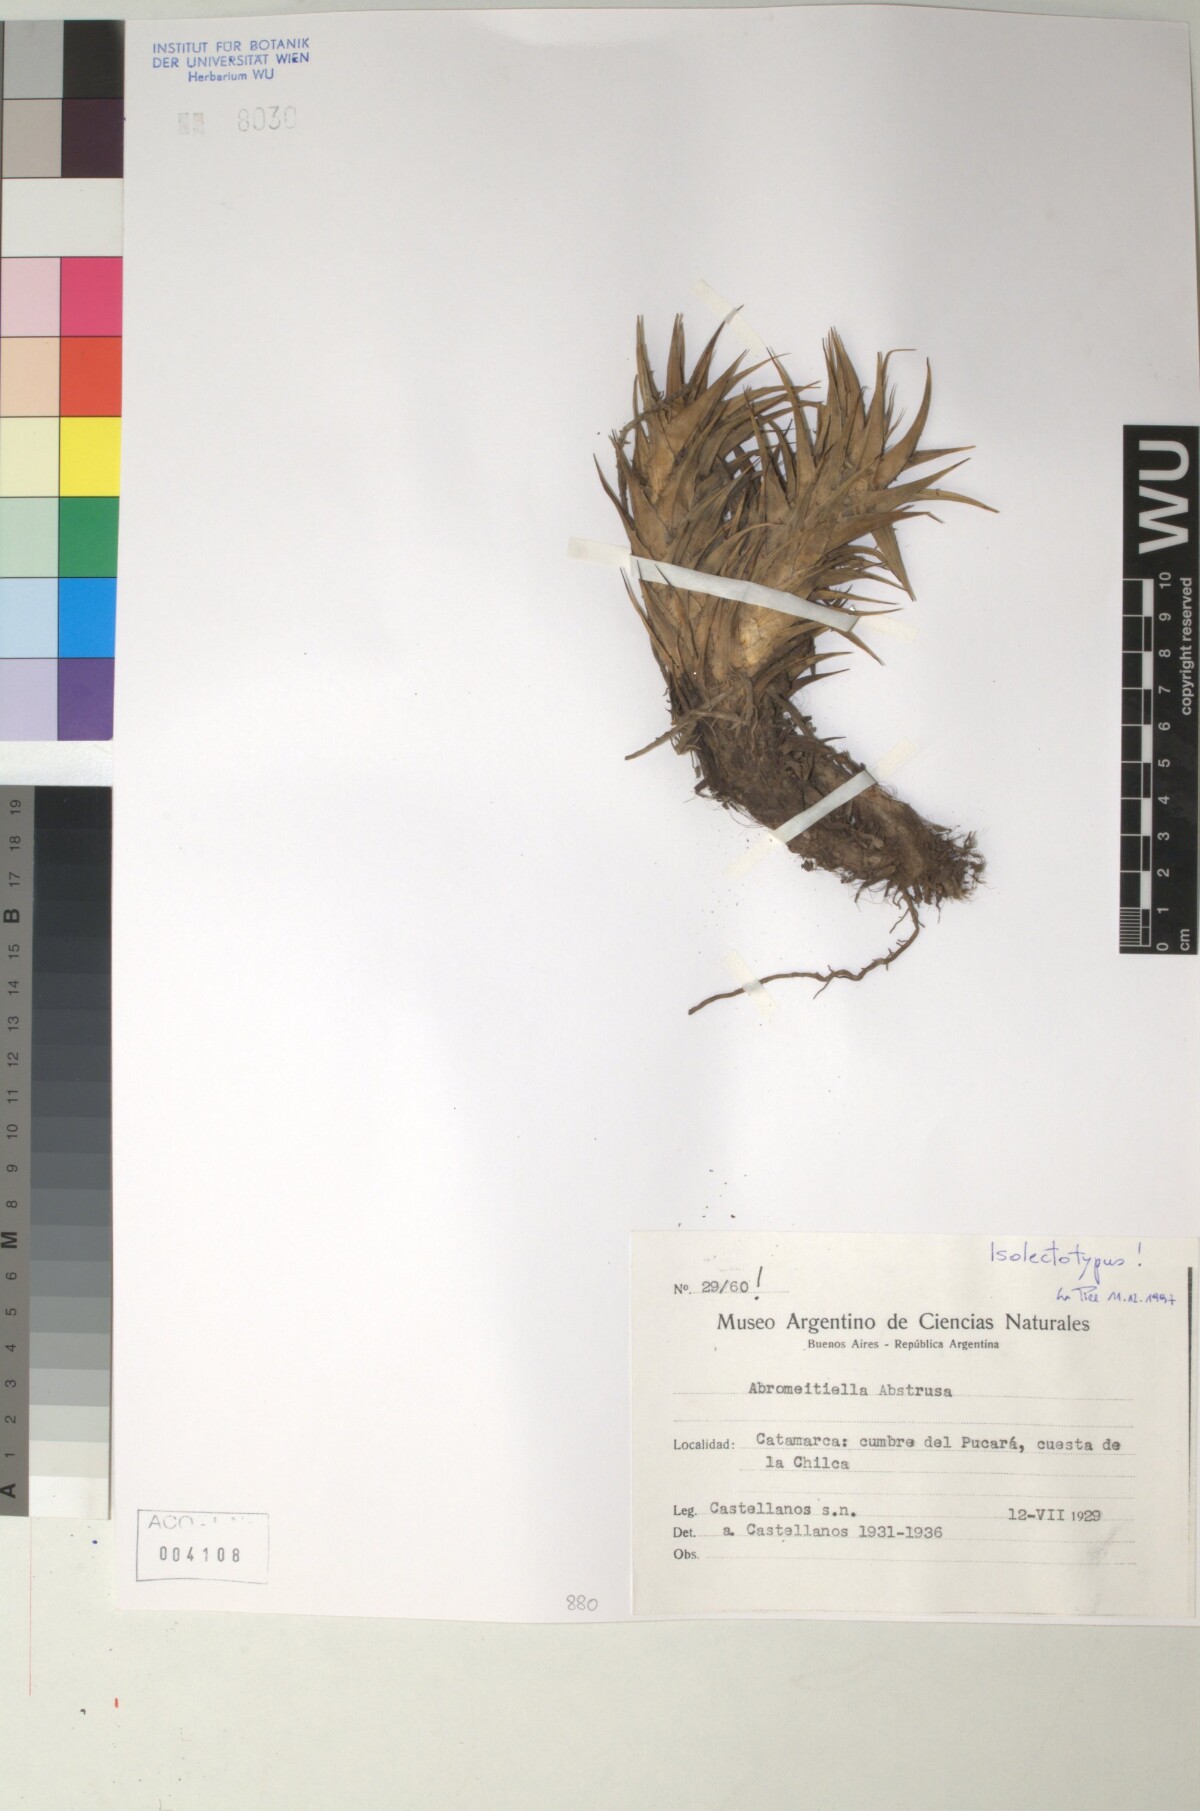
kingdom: Plantae
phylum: Tracheophyta
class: Liliopsida
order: Poales
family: Bromeliaceae
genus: Deuterocohnia
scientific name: Deuterocohnia abstrusa
